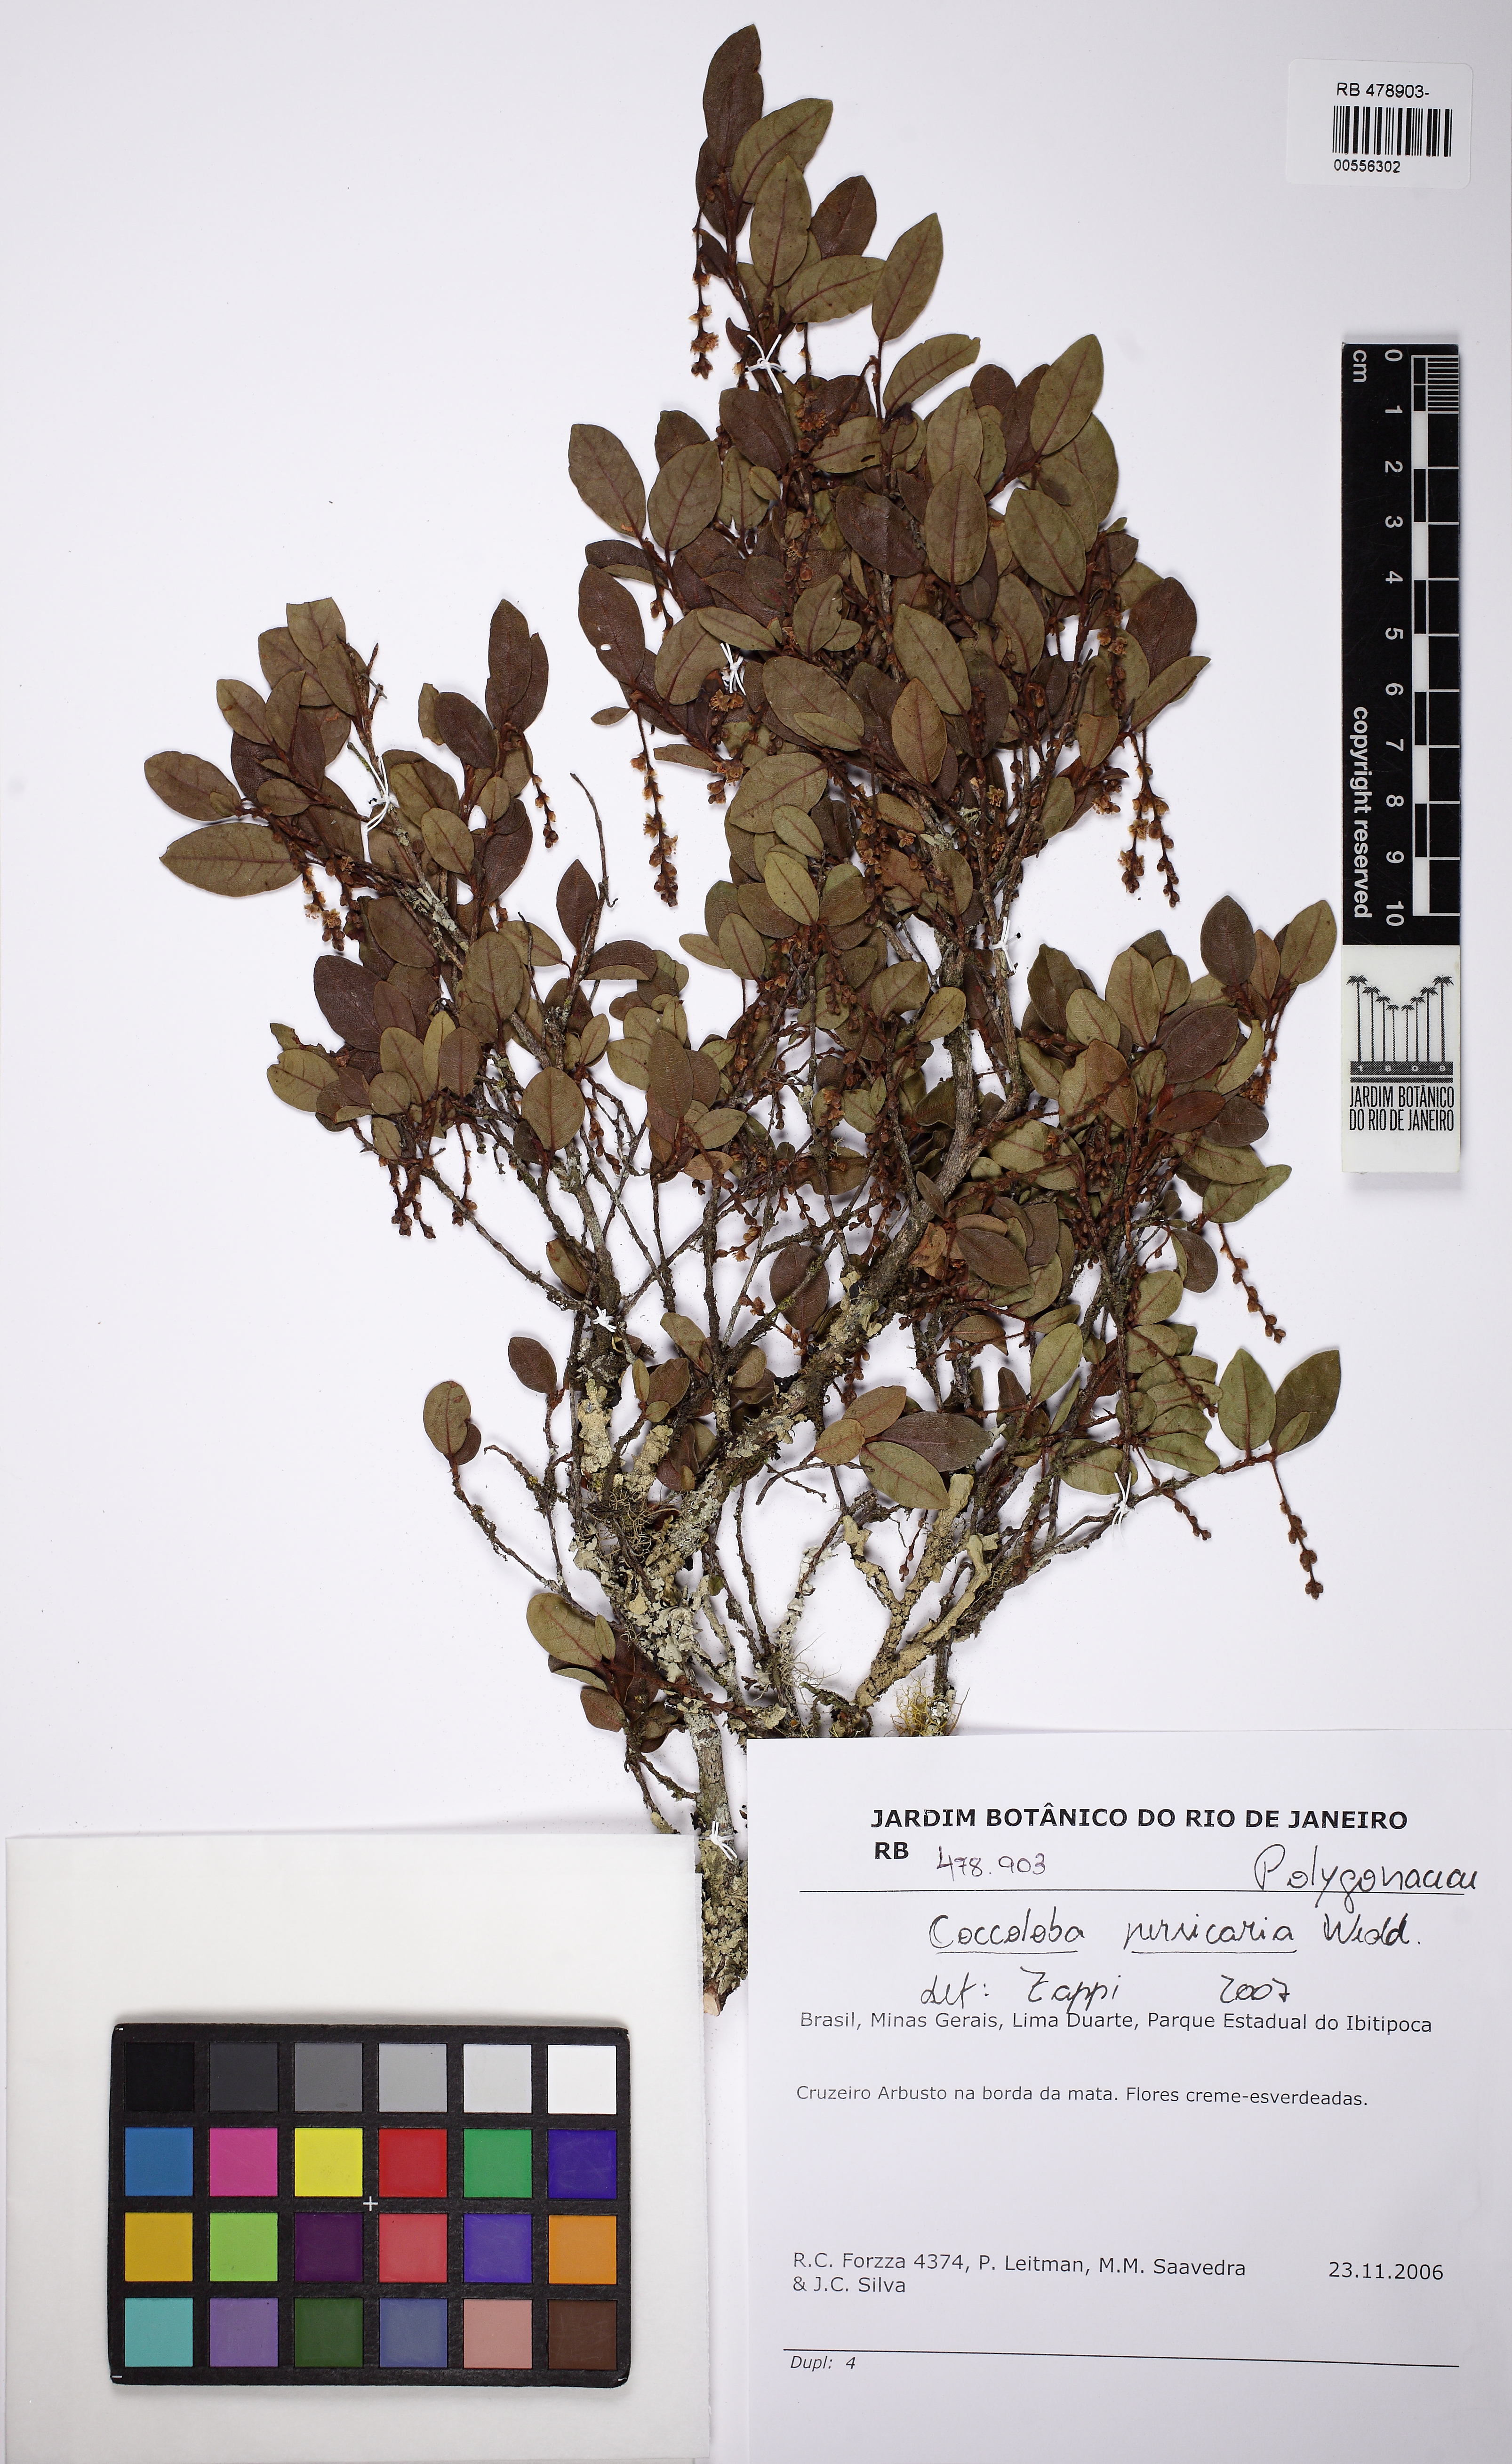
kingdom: Plantae
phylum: Tracheophyta
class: Magnoliopsida
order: Caryophyllales
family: Polygonaceae
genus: Coccoloba
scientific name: Coccoloba persicaria
